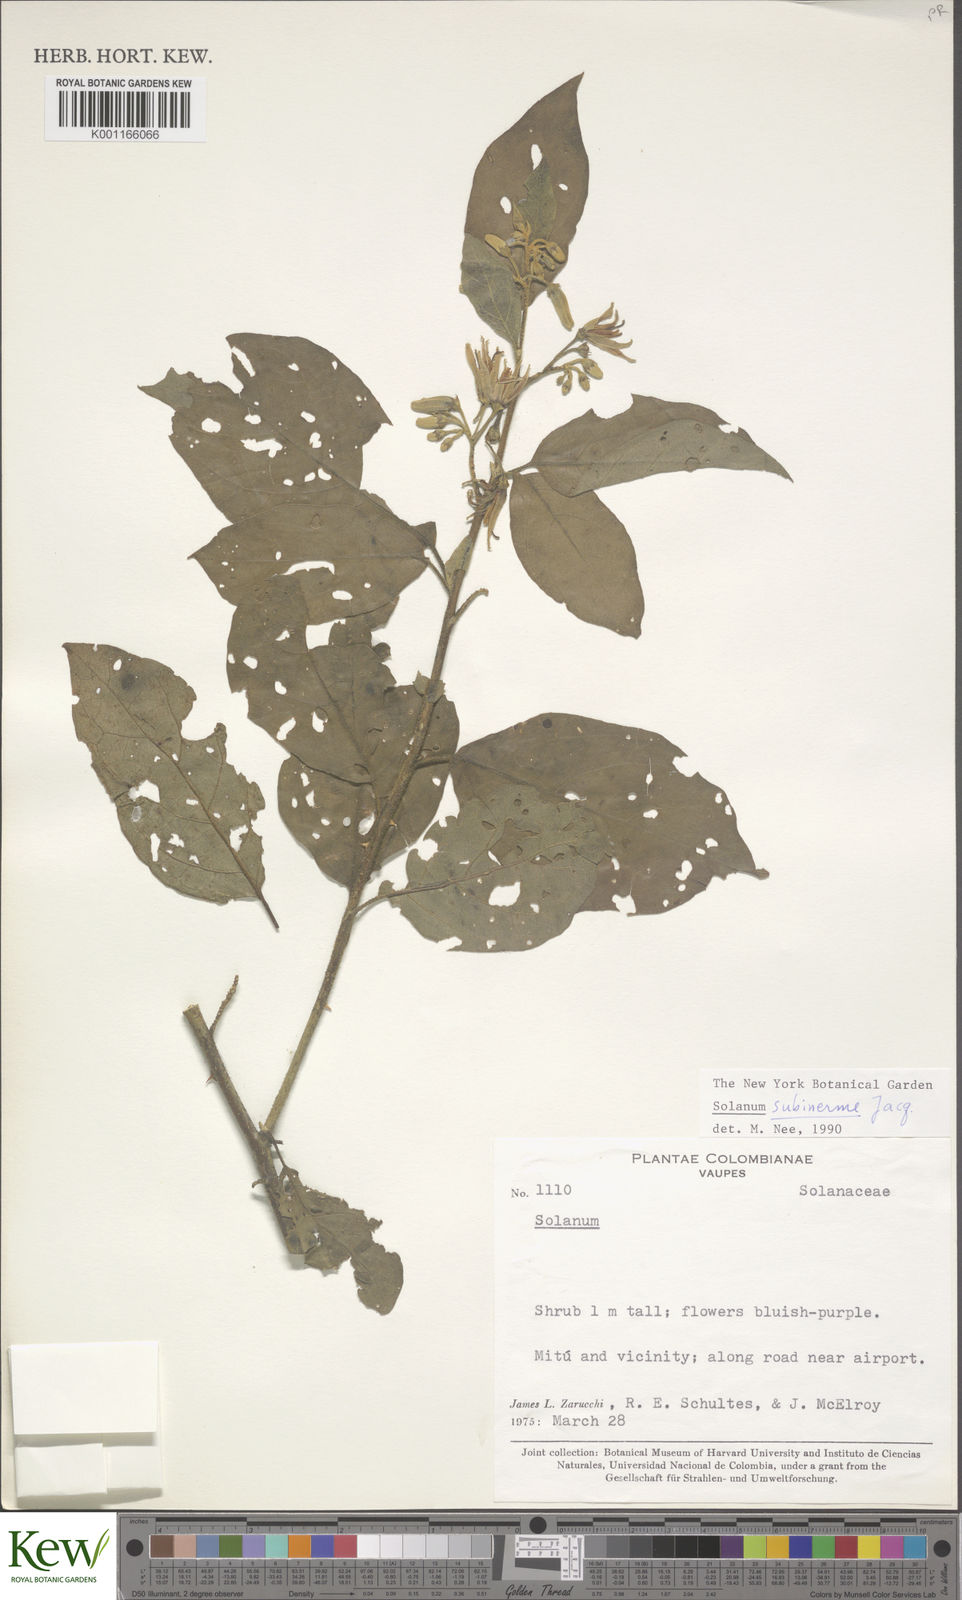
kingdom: Plantae
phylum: Tracheophyta
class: Magnoliopsida
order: Solanales
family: Solanaceae
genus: Solanum
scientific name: Solanum subinerme
